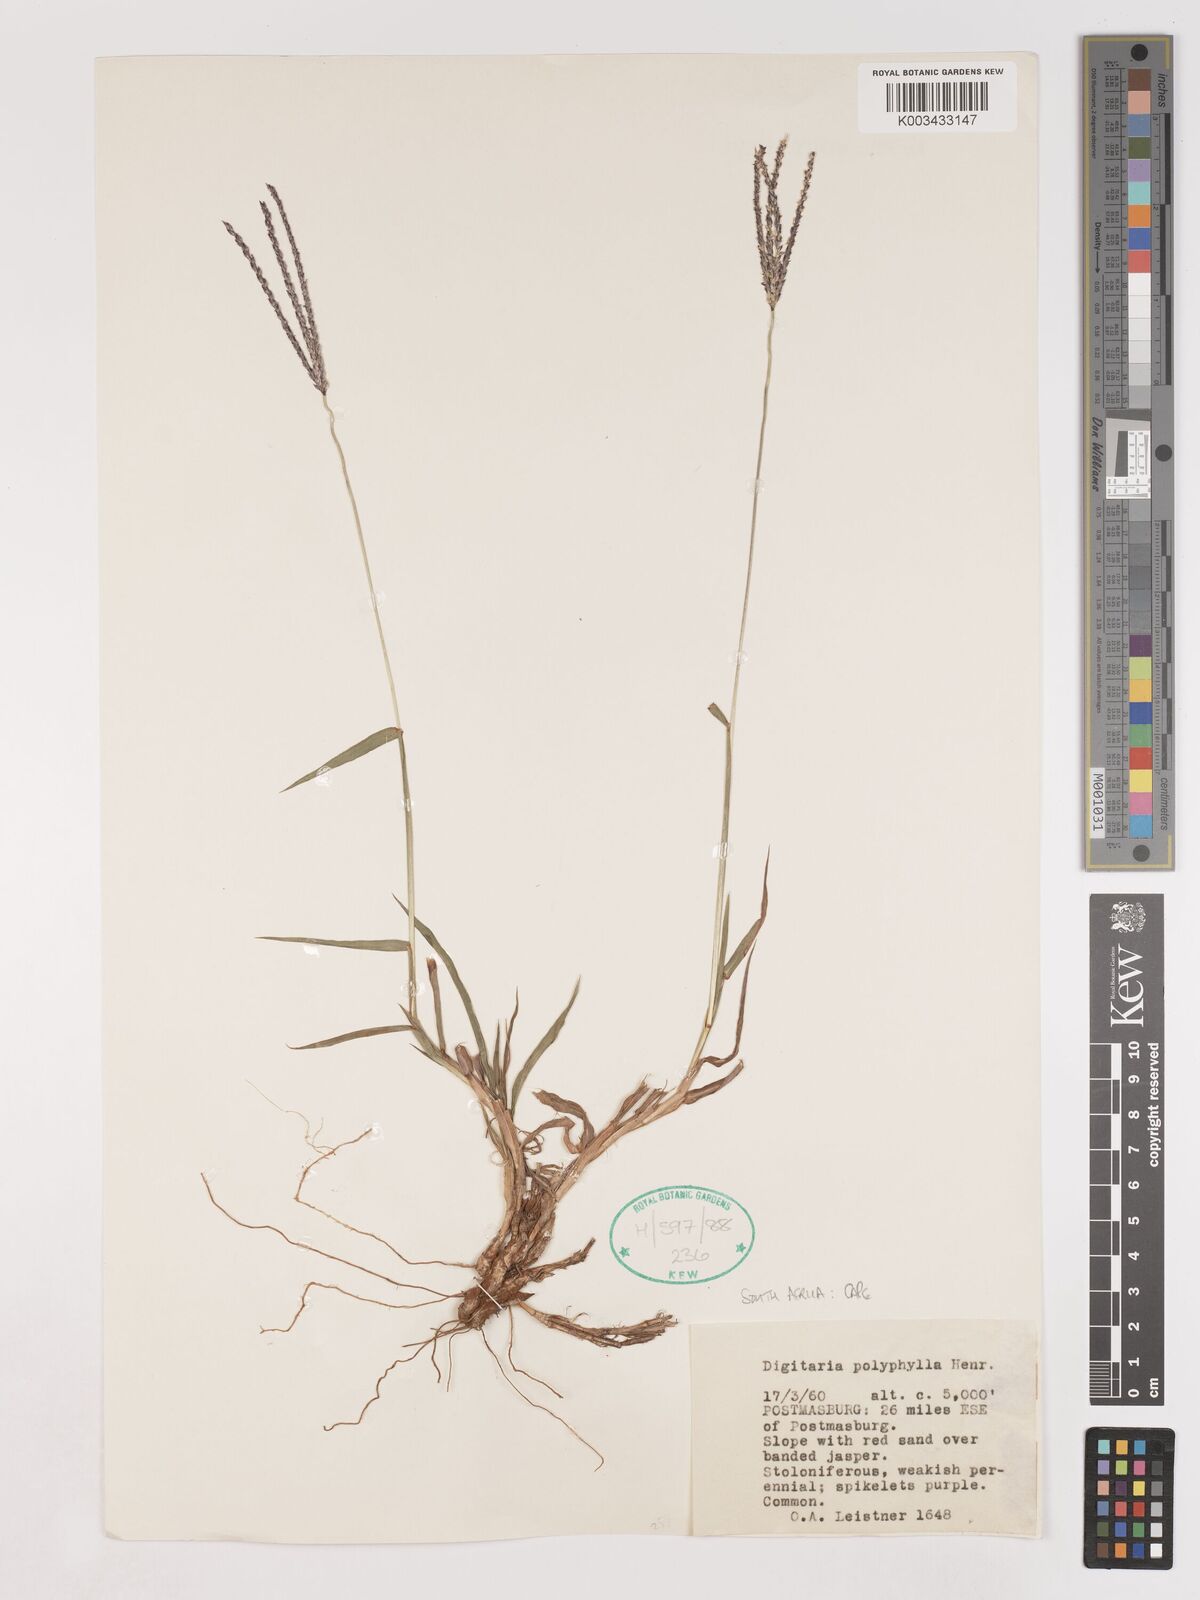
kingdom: Plantae
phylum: Tracheophyta
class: Liliopsida
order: Poales
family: Poaceae
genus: Digitaria
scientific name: Digitaria polyphylla
